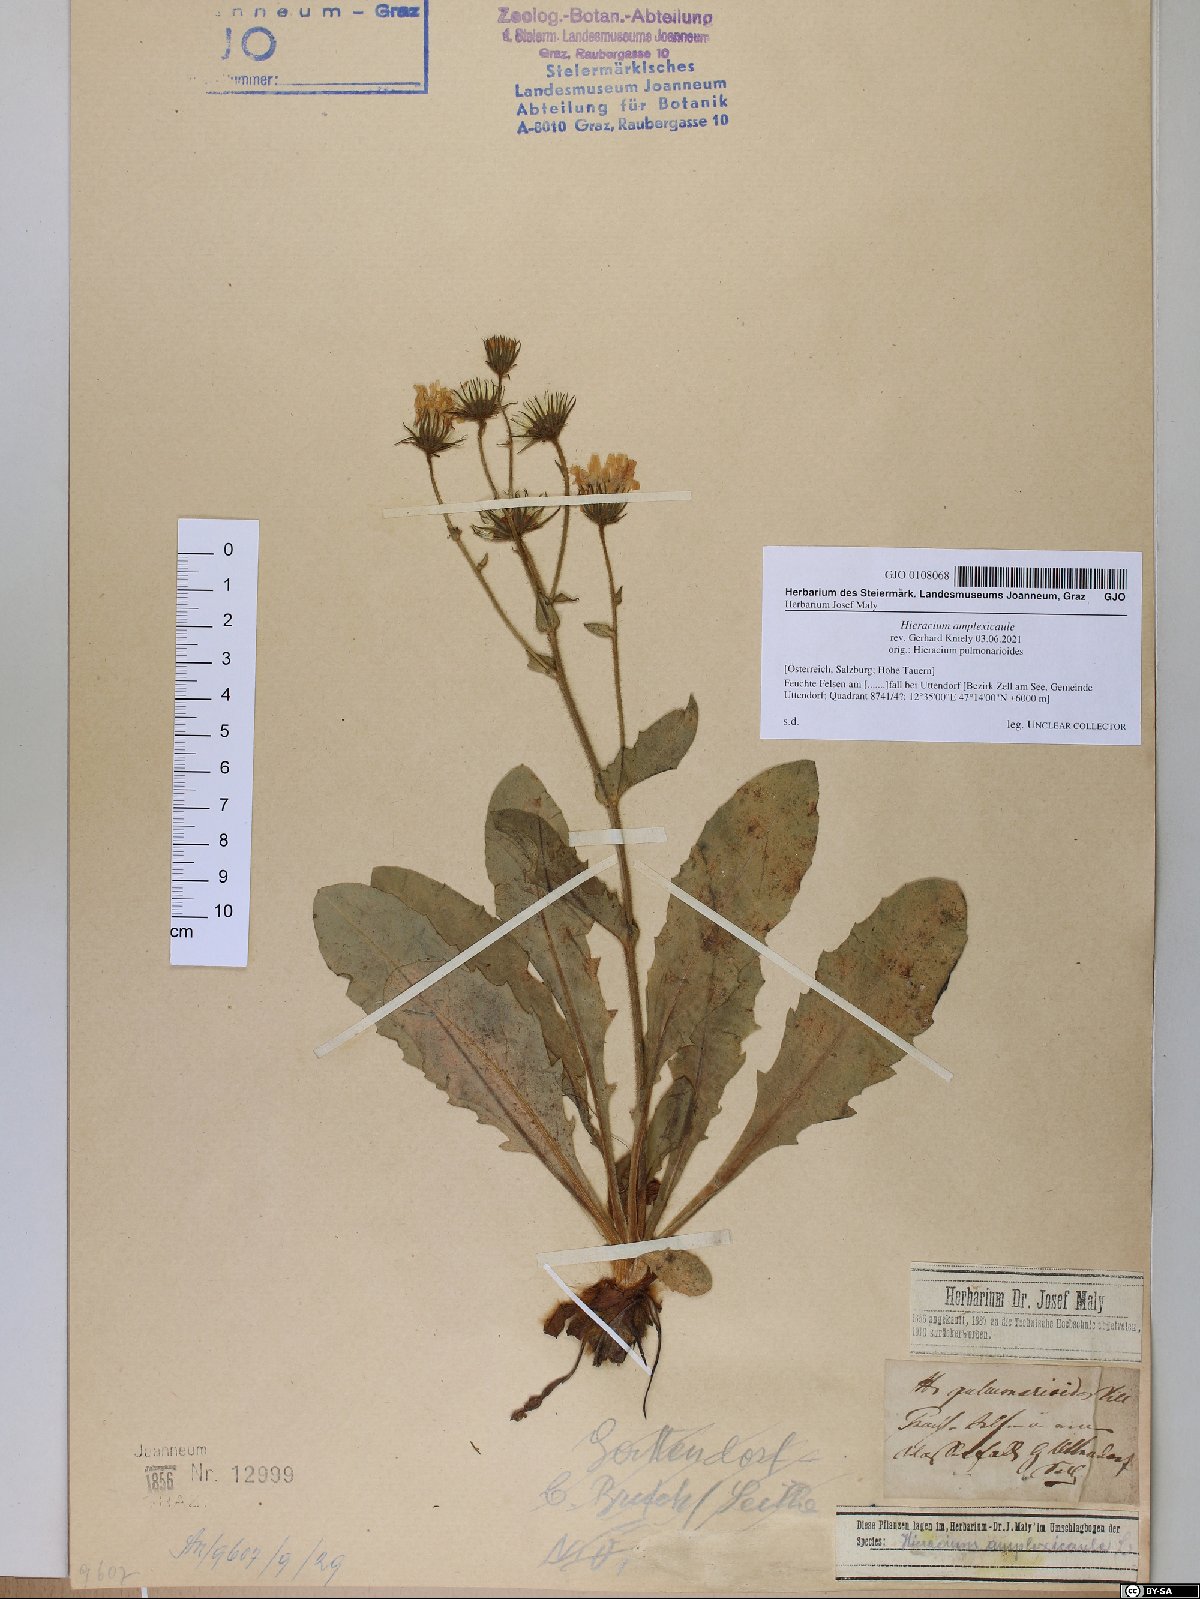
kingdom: Plantae
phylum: Tracheophyta
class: Magnoliopsida
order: Asterales
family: Asteraceae
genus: Hieracium
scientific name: Hieracium amplexicaule
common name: Sticky hawkweed
